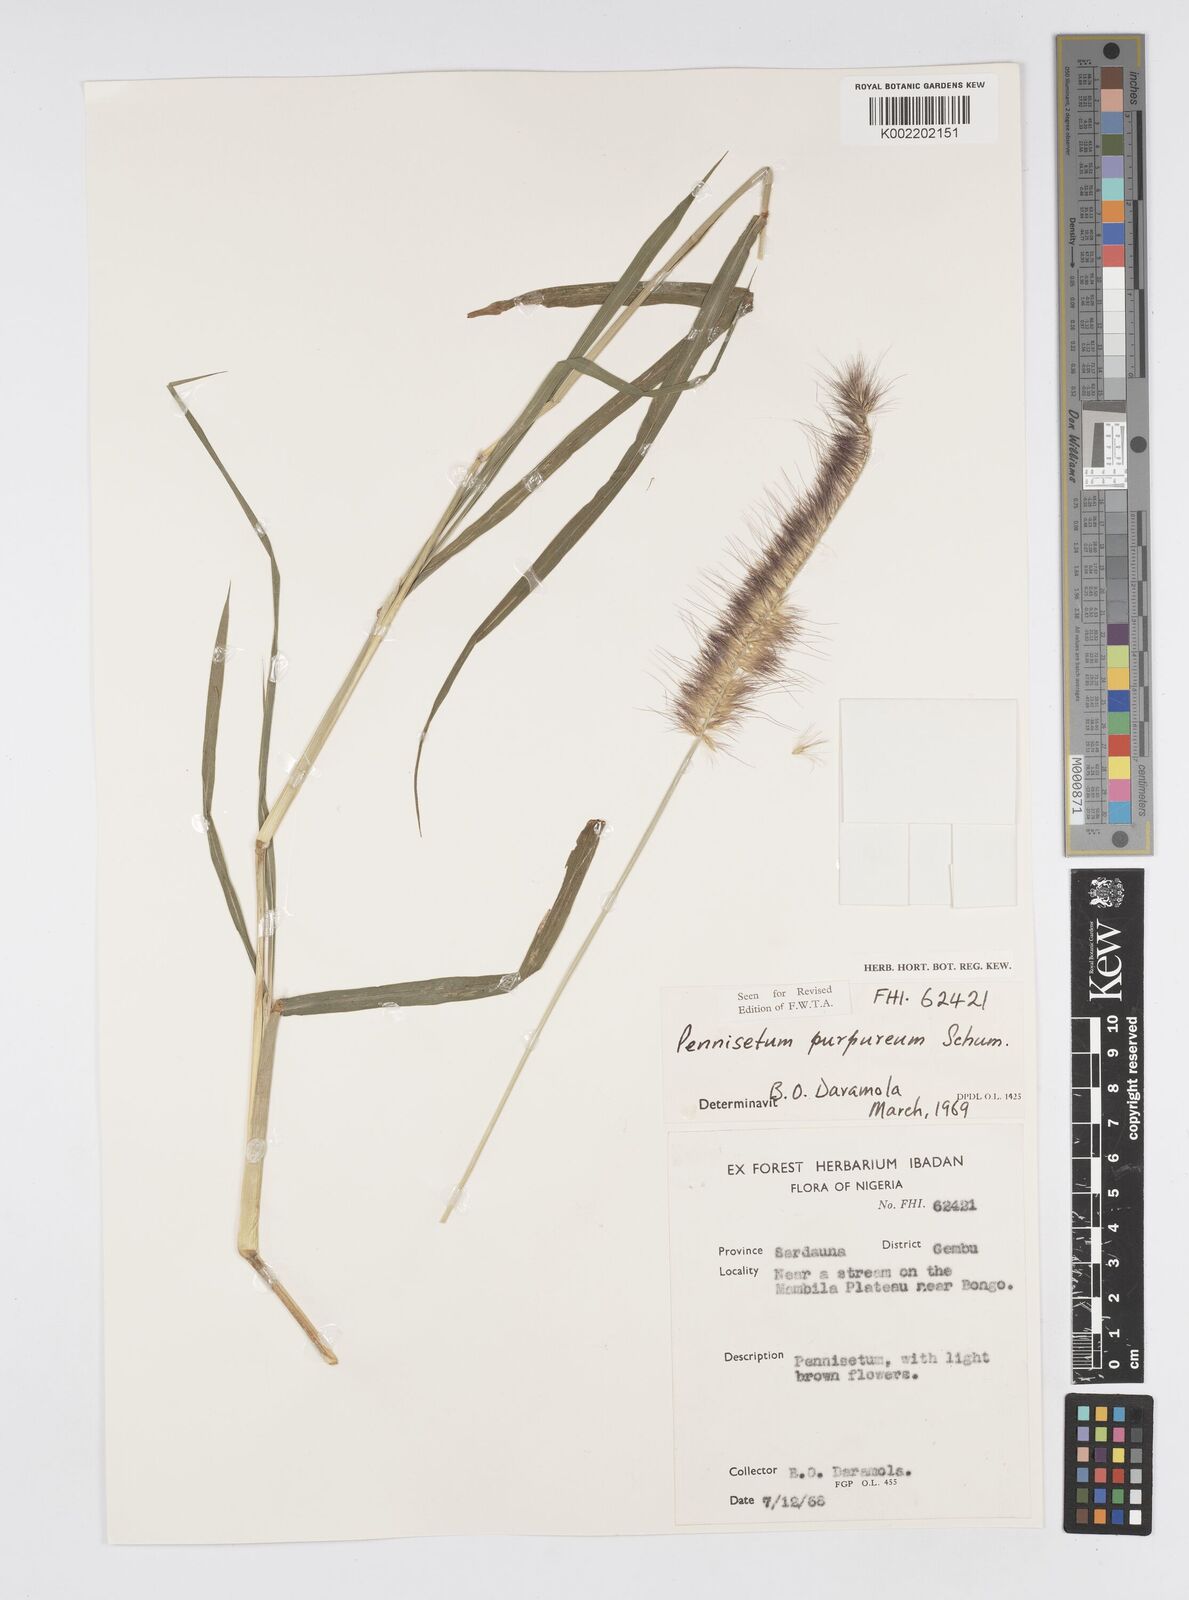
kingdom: Plantae
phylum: Tracheophyta
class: Liliopsida
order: Poales
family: Poaceae
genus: Cenchrus
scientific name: Cenchrus purpureus
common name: Elephant grass
